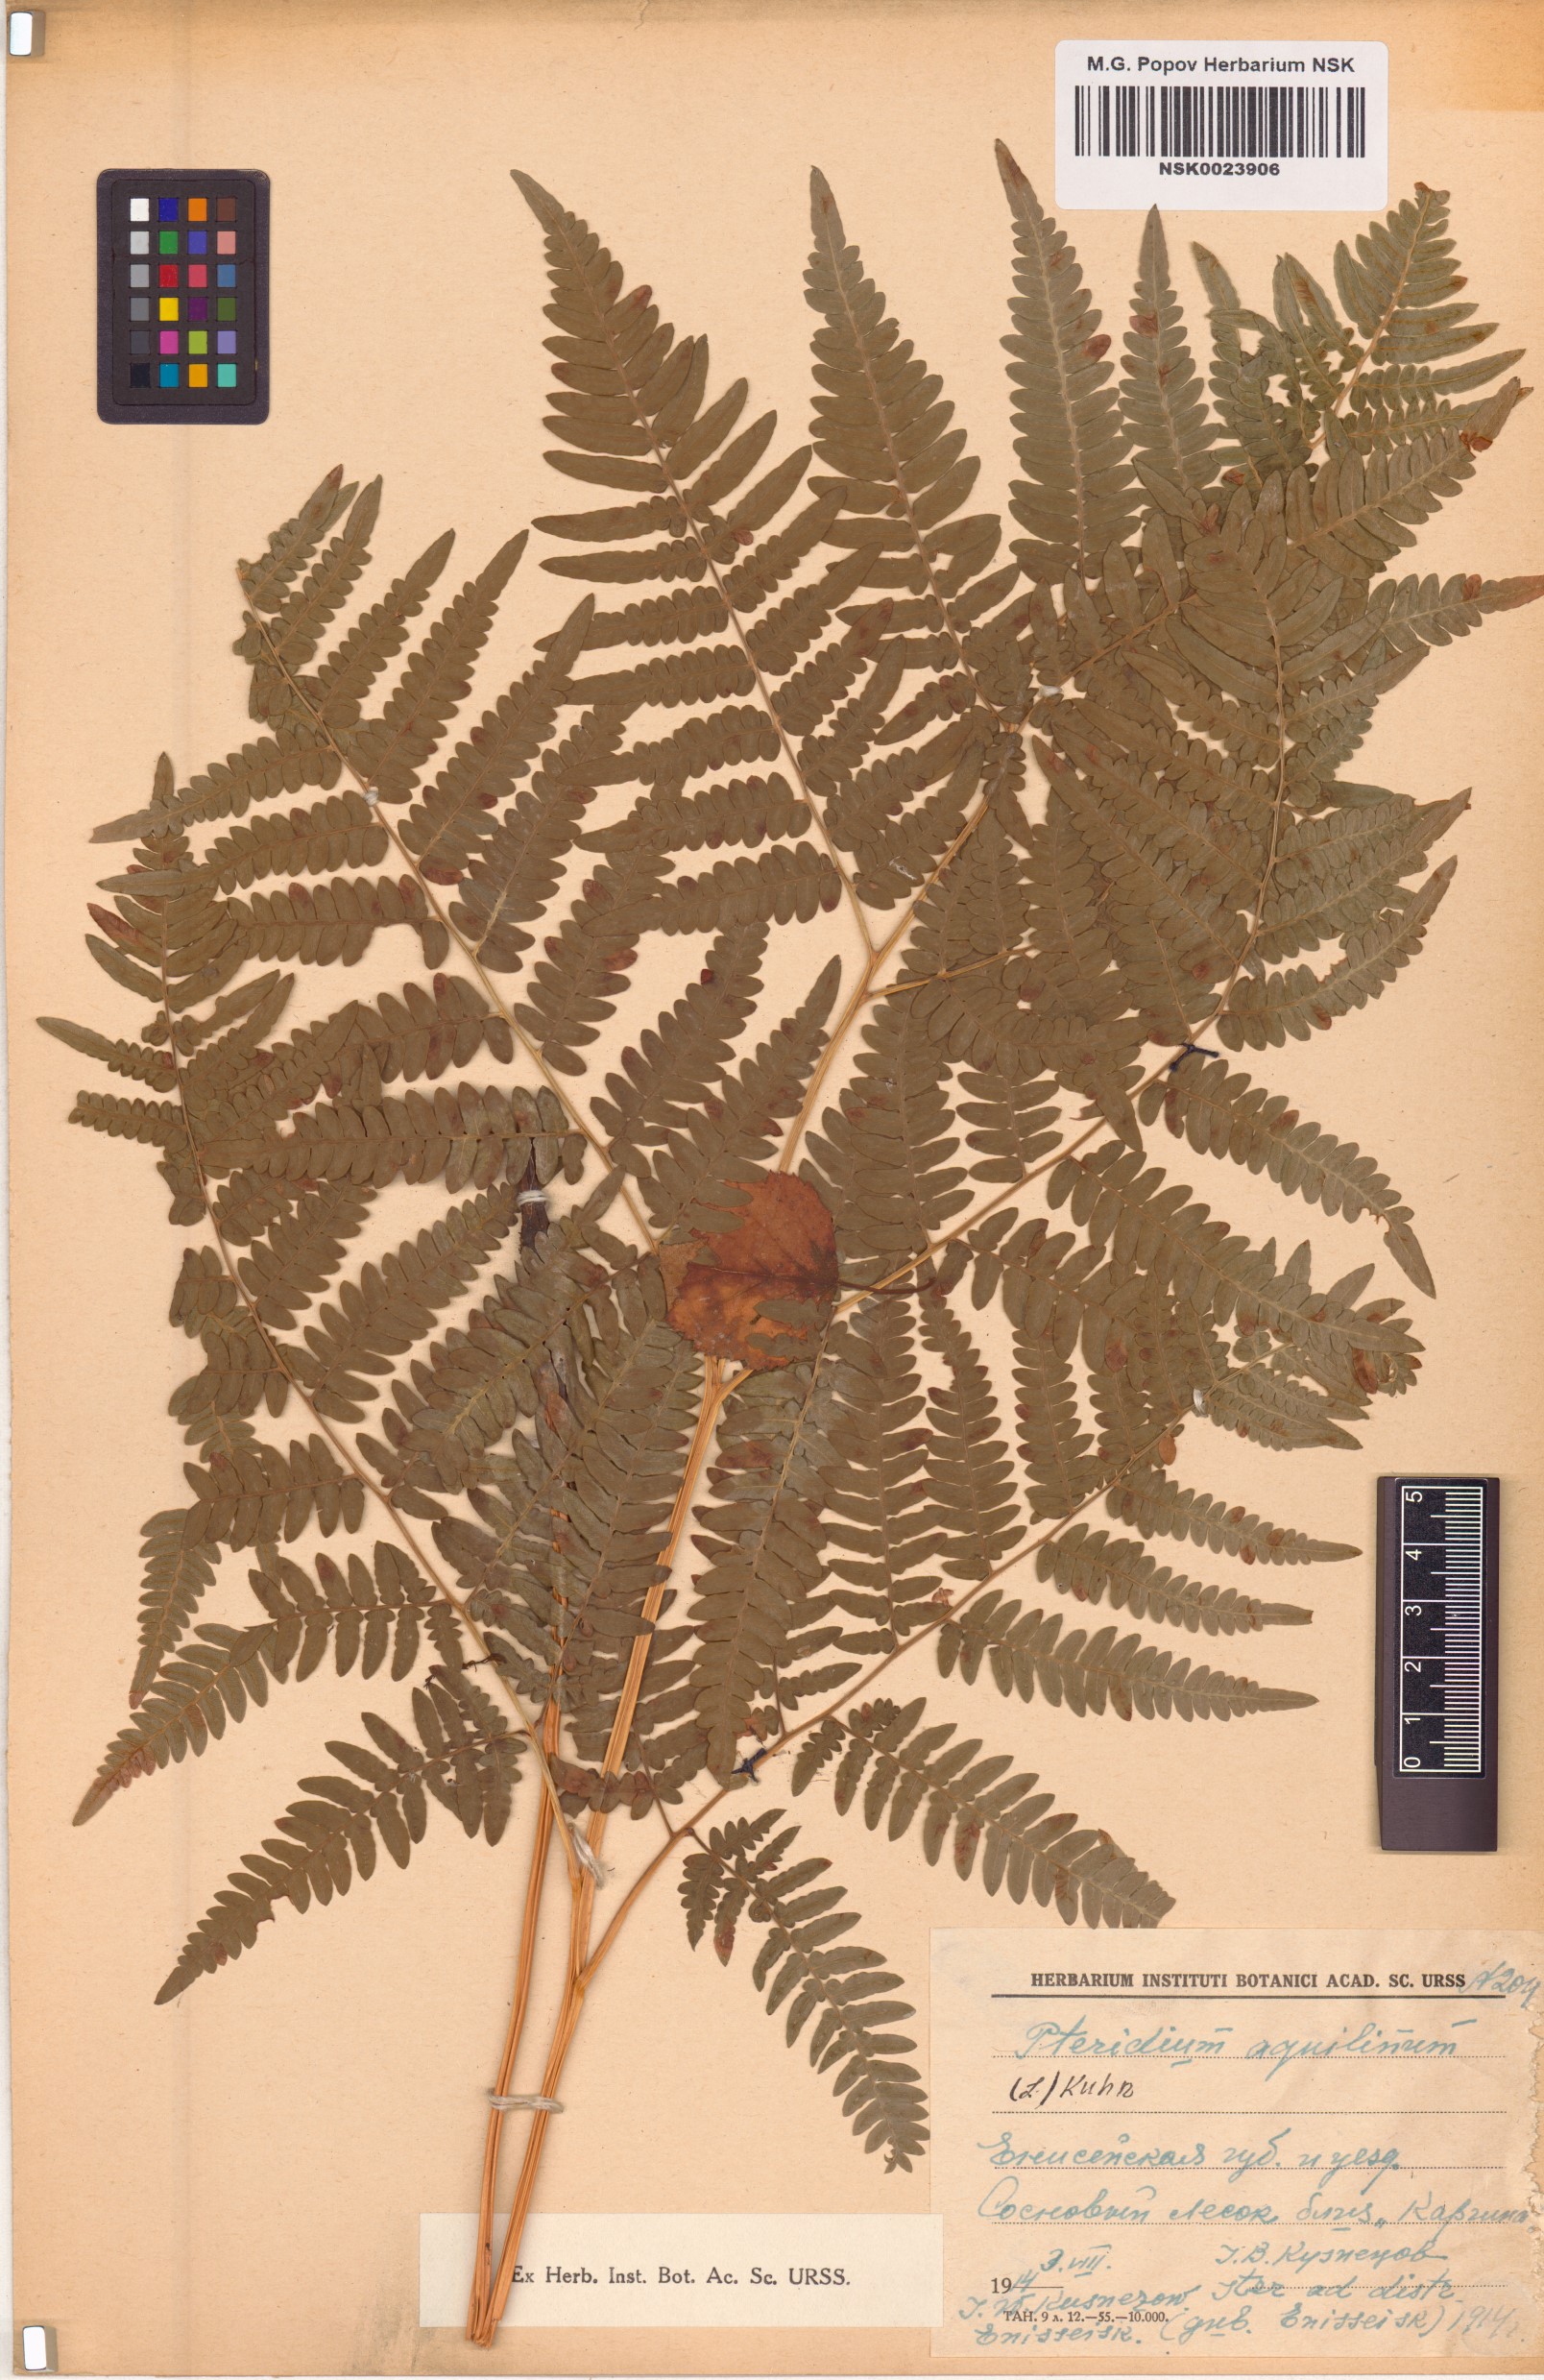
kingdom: Plantae
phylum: Tracheophyta
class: Polypodiopsida
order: Polypodiales
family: Dennstaedtiaceae
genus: Pteridium
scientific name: Pteridium aquilinum
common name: Bracken
